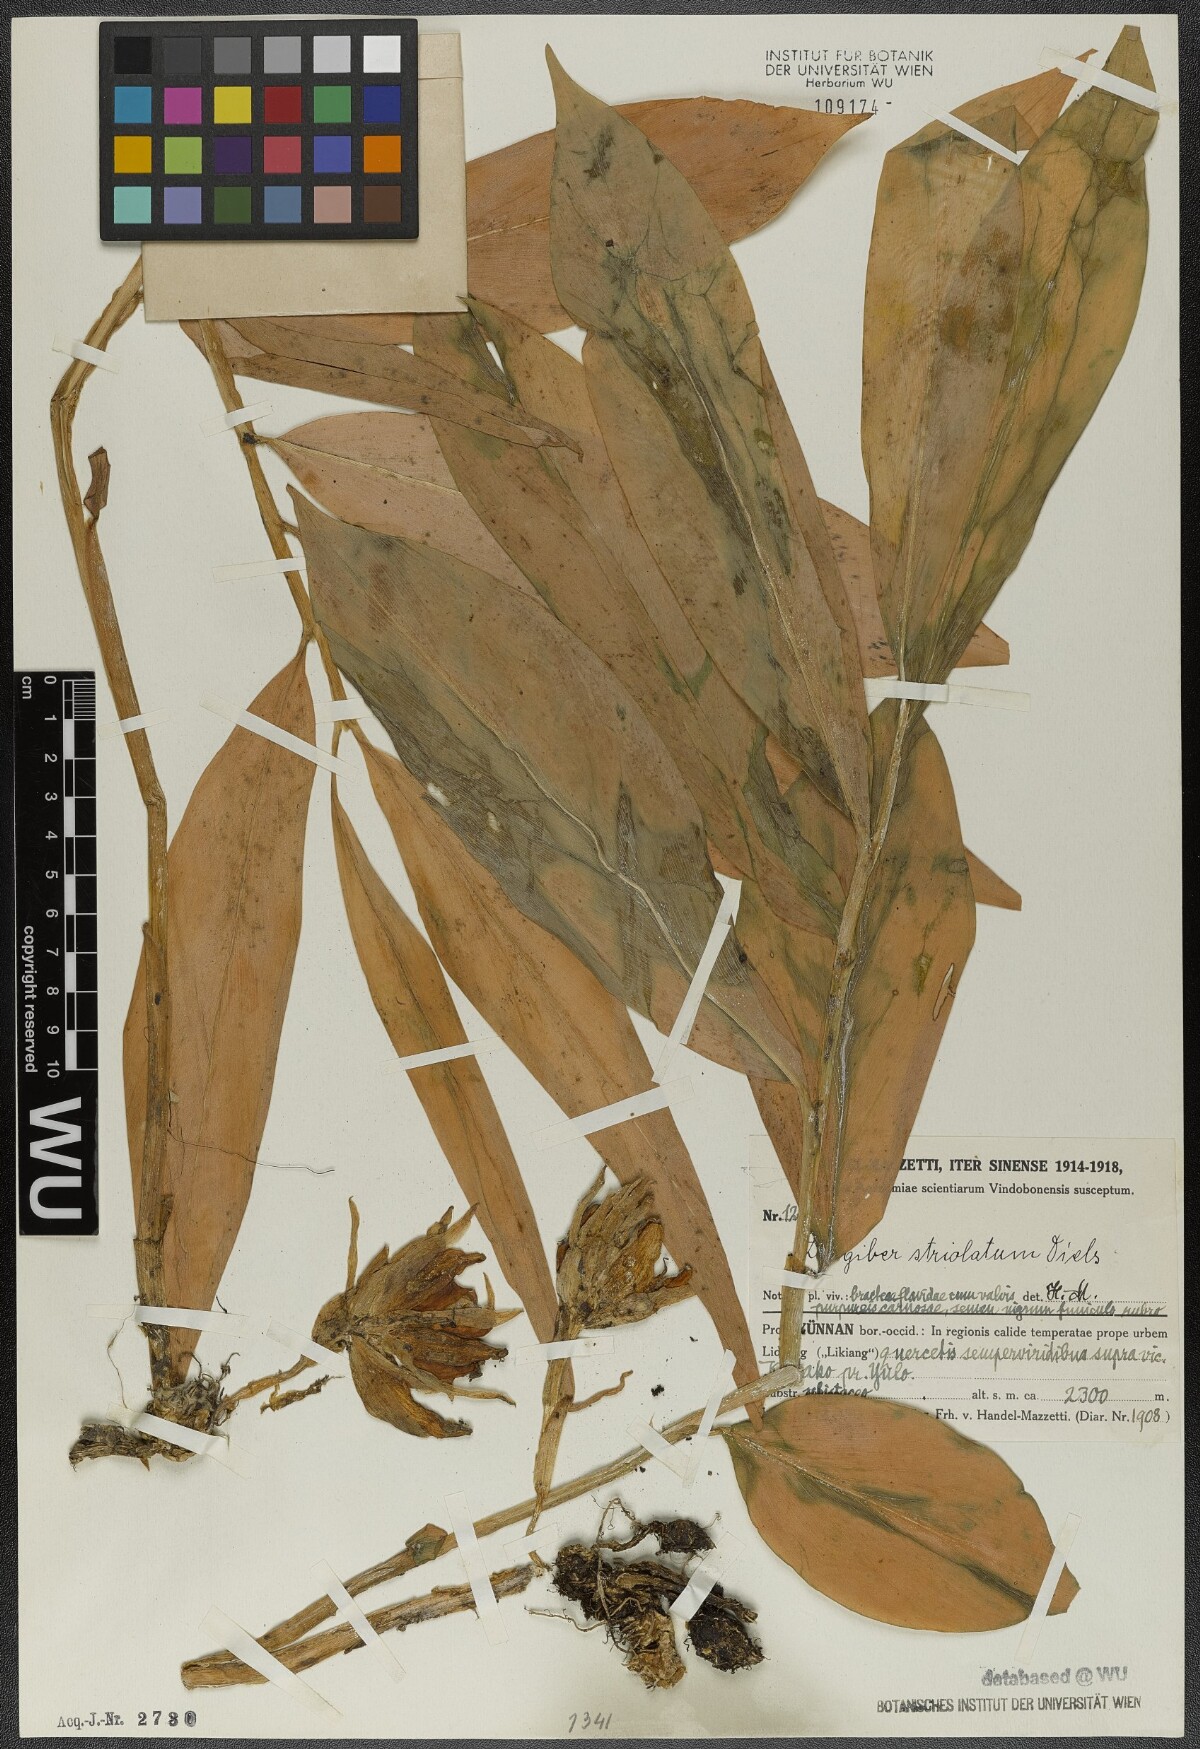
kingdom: Plantae
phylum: Tracheophyta
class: Liliopsida
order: Zingiberales
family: Zingiberaceae
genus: Zingiber
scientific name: Zingiber striolatum
